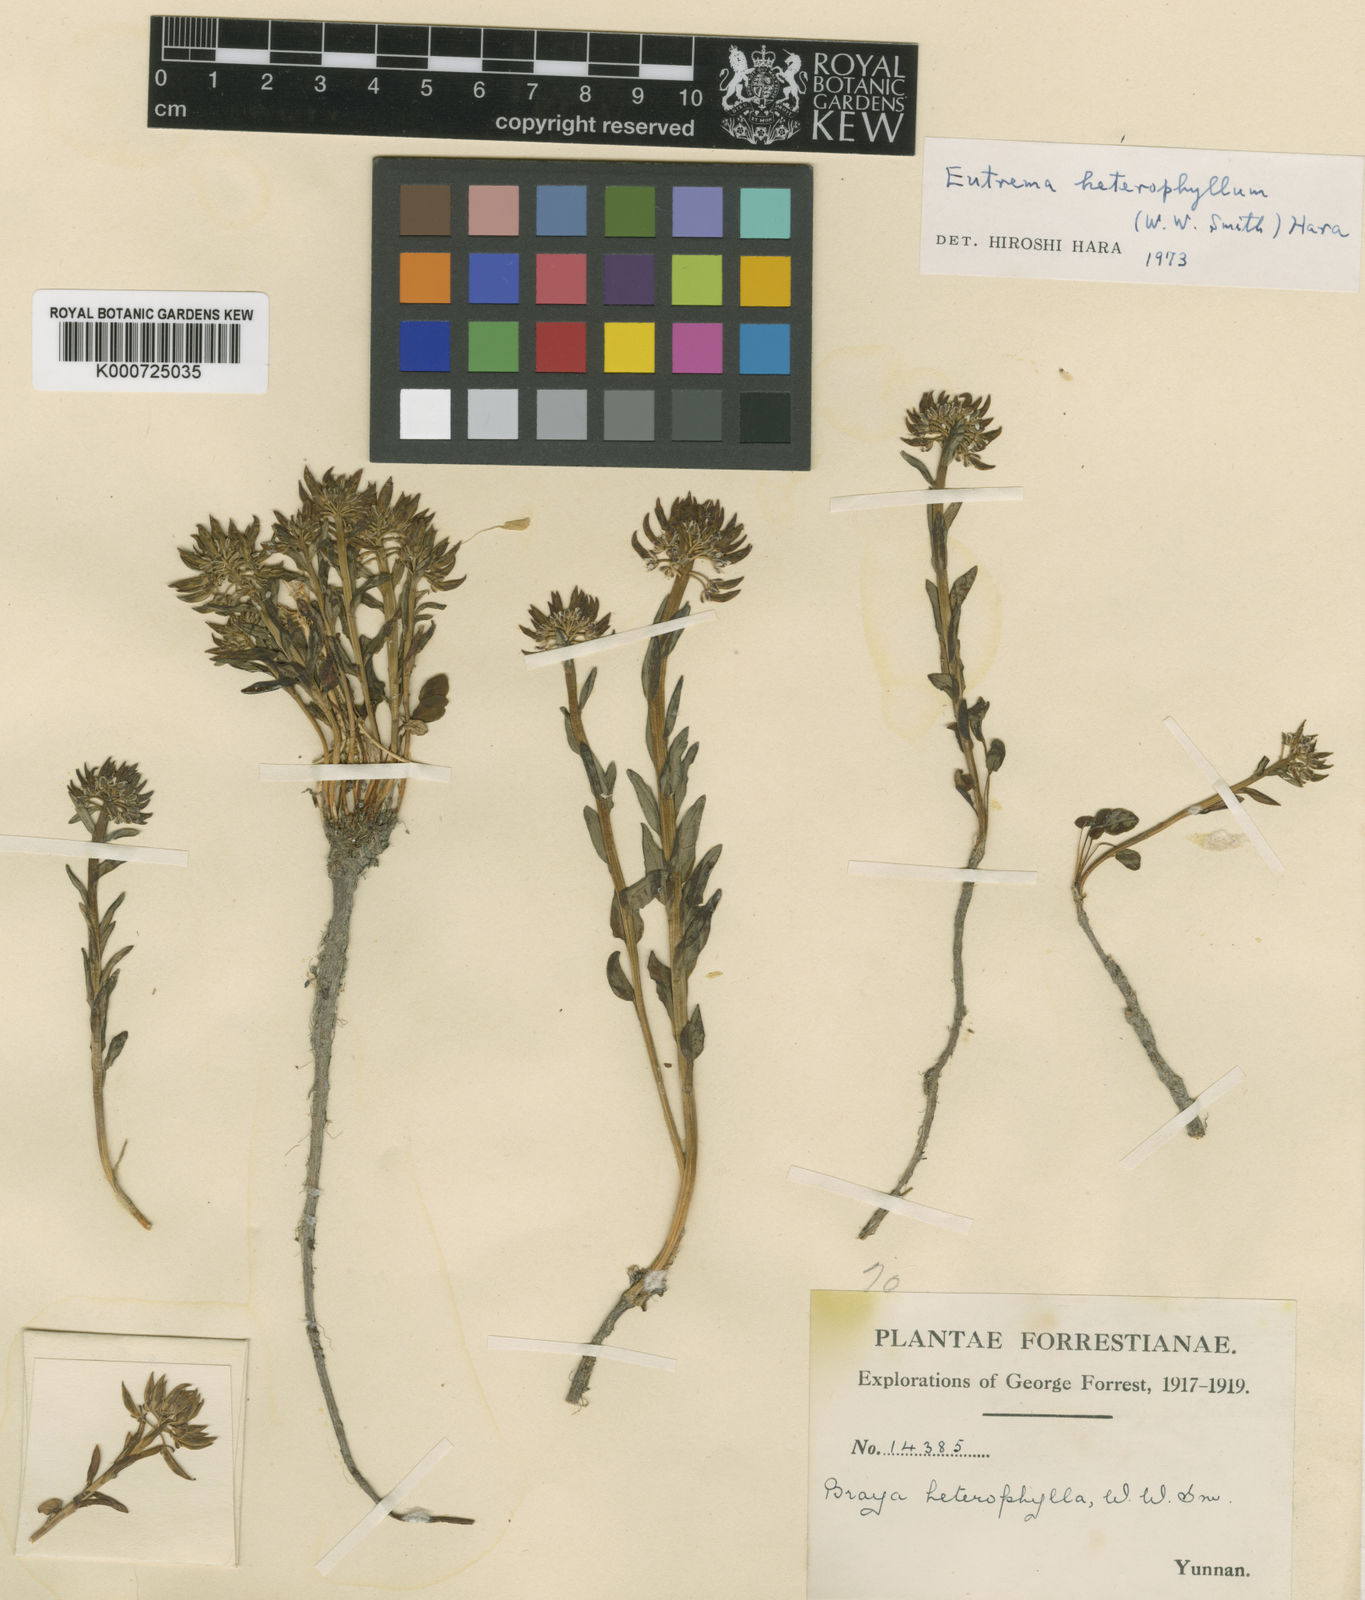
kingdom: Plantae
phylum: Tracheophyta
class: Magnoliopsida
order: Brassicales
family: Brassicaceae
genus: Eutrema
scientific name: Eutrema heterophyllum
